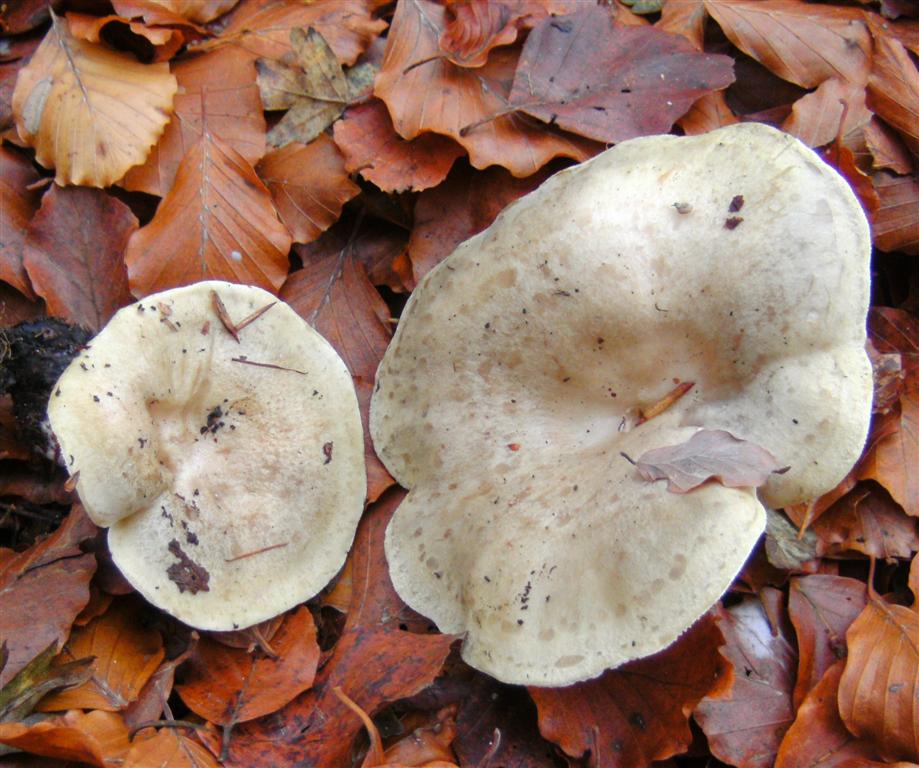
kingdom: Fungi
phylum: Basidiomycota
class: Agaricomycetes
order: Russulales
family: Russulaceae
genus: Lactarius
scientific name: Lactarius blennius
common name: dråbeplettet mælkehat
